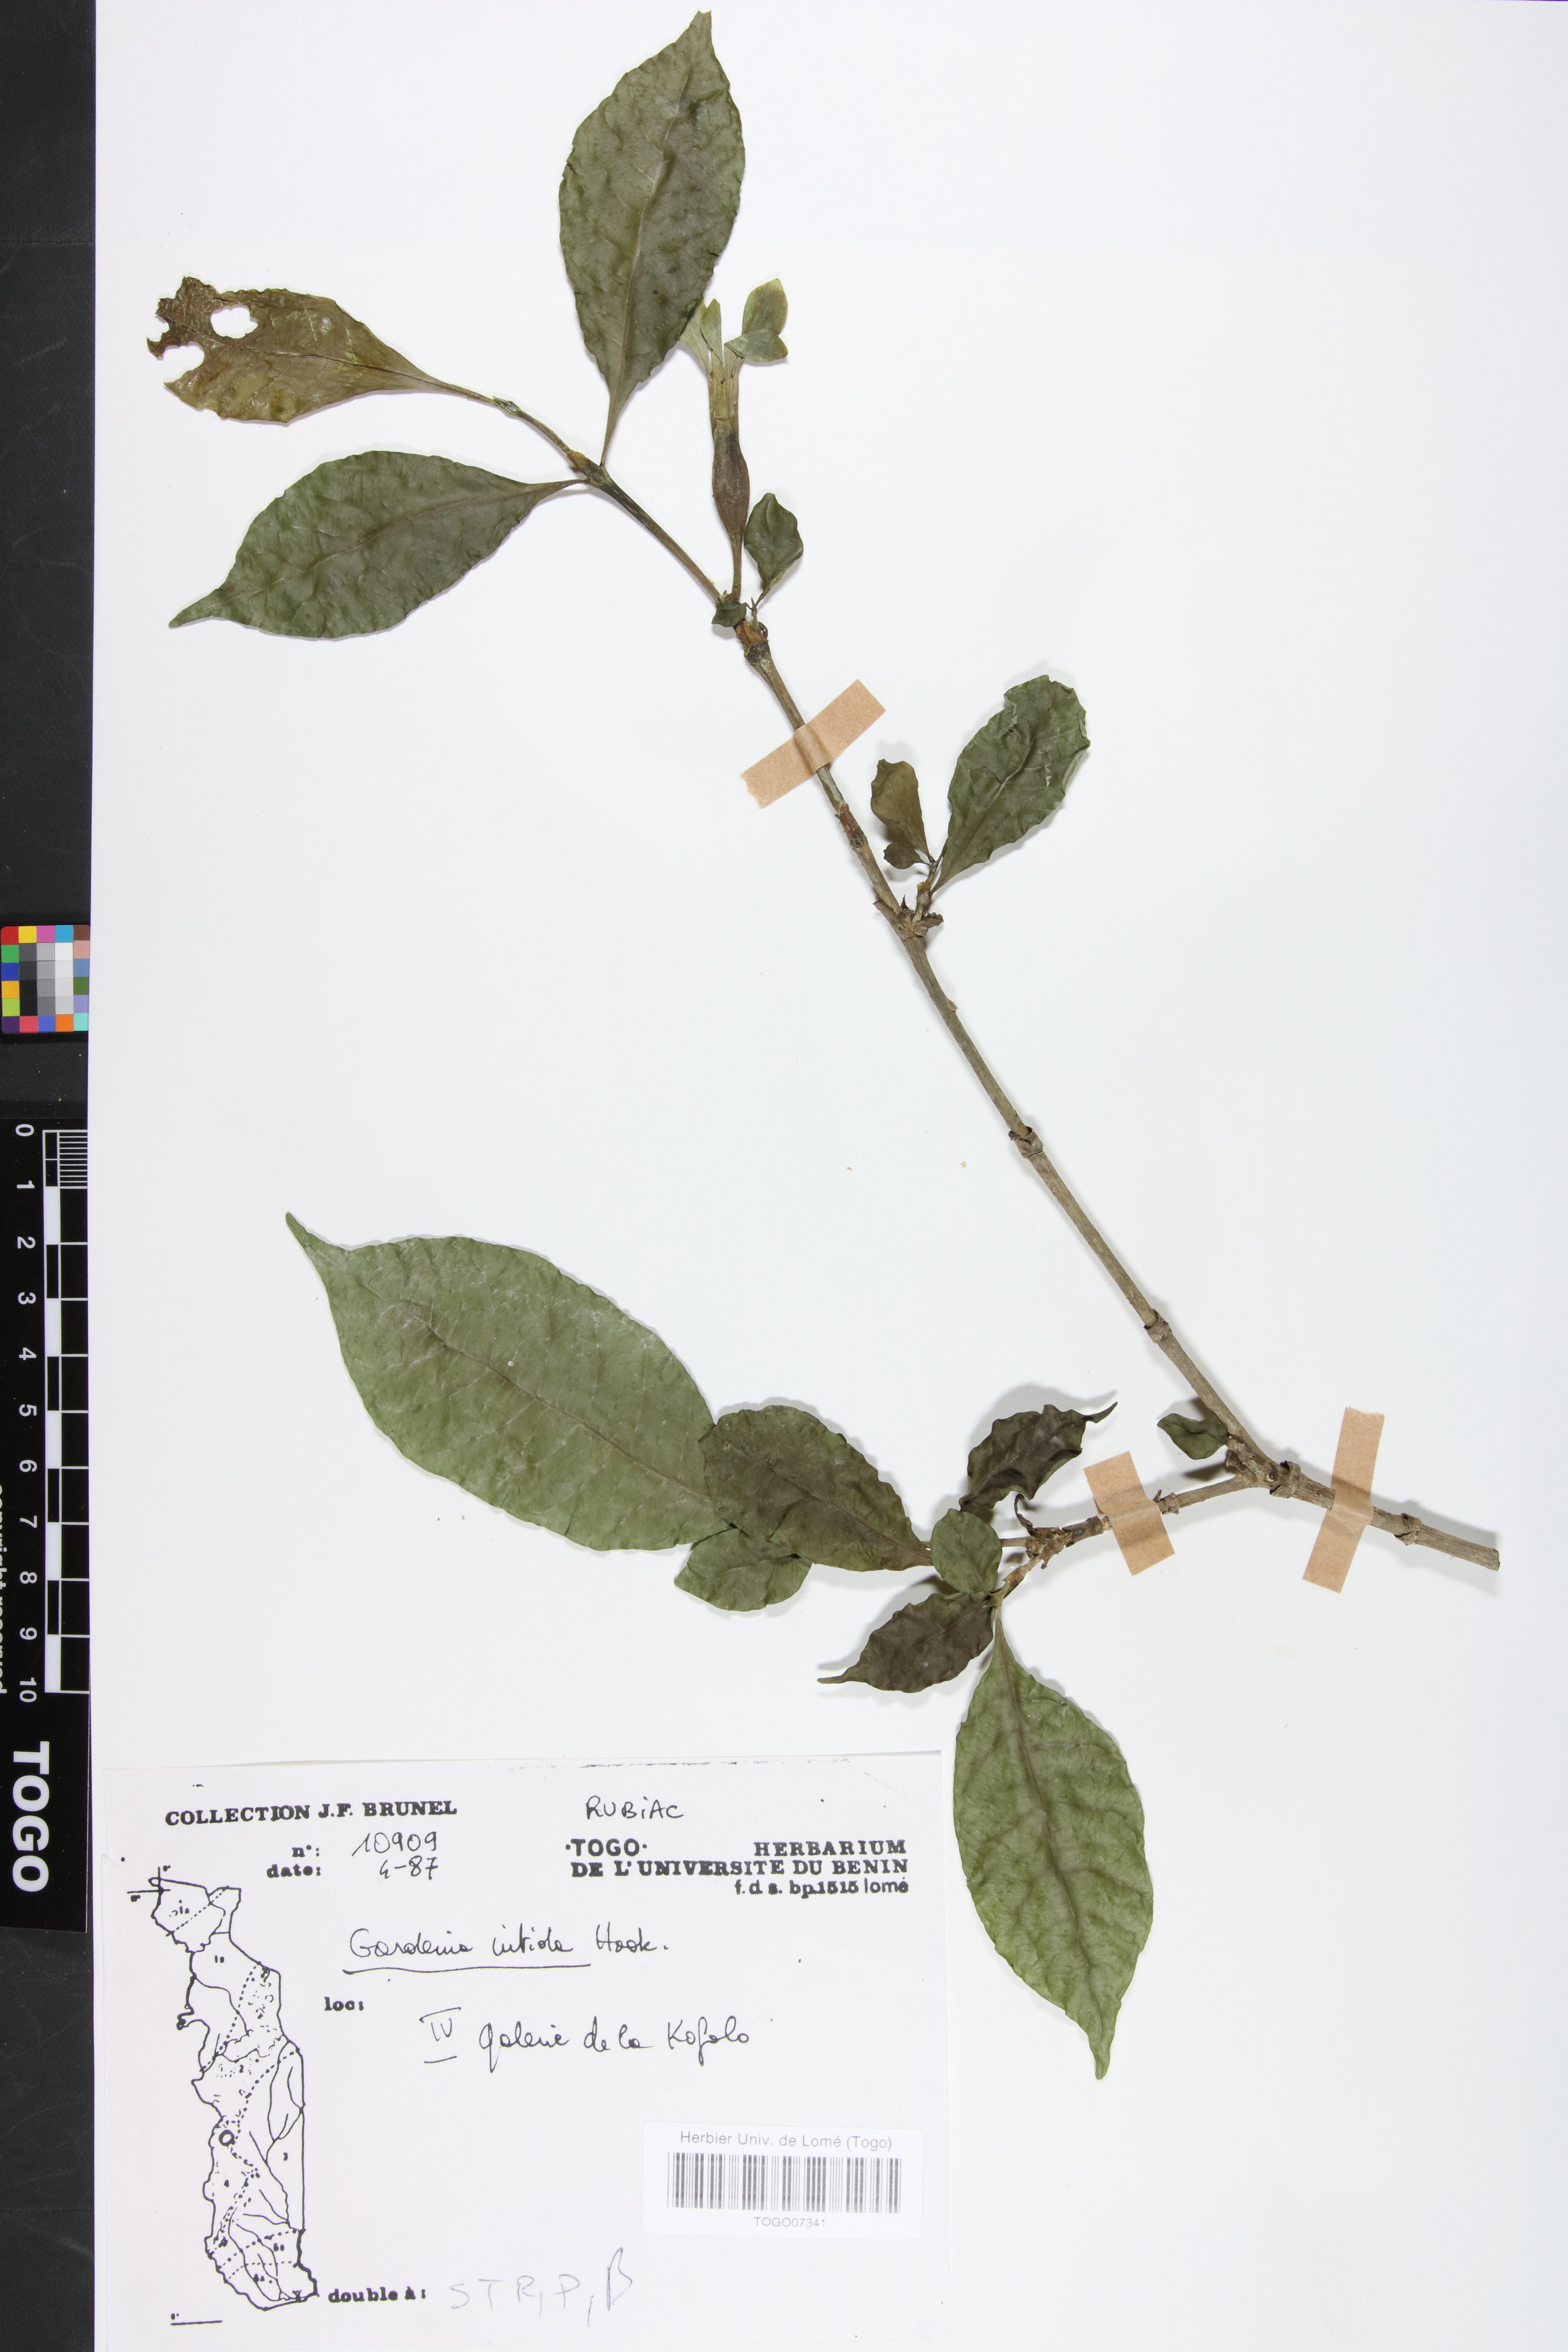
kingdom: Plantae
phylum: Tracheophyta
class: Magnoliopsida
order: Gentianales
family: Rubiaceae
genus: Gardenia
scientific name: Gardenia nitida
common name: Glossy-leaved gardenia
